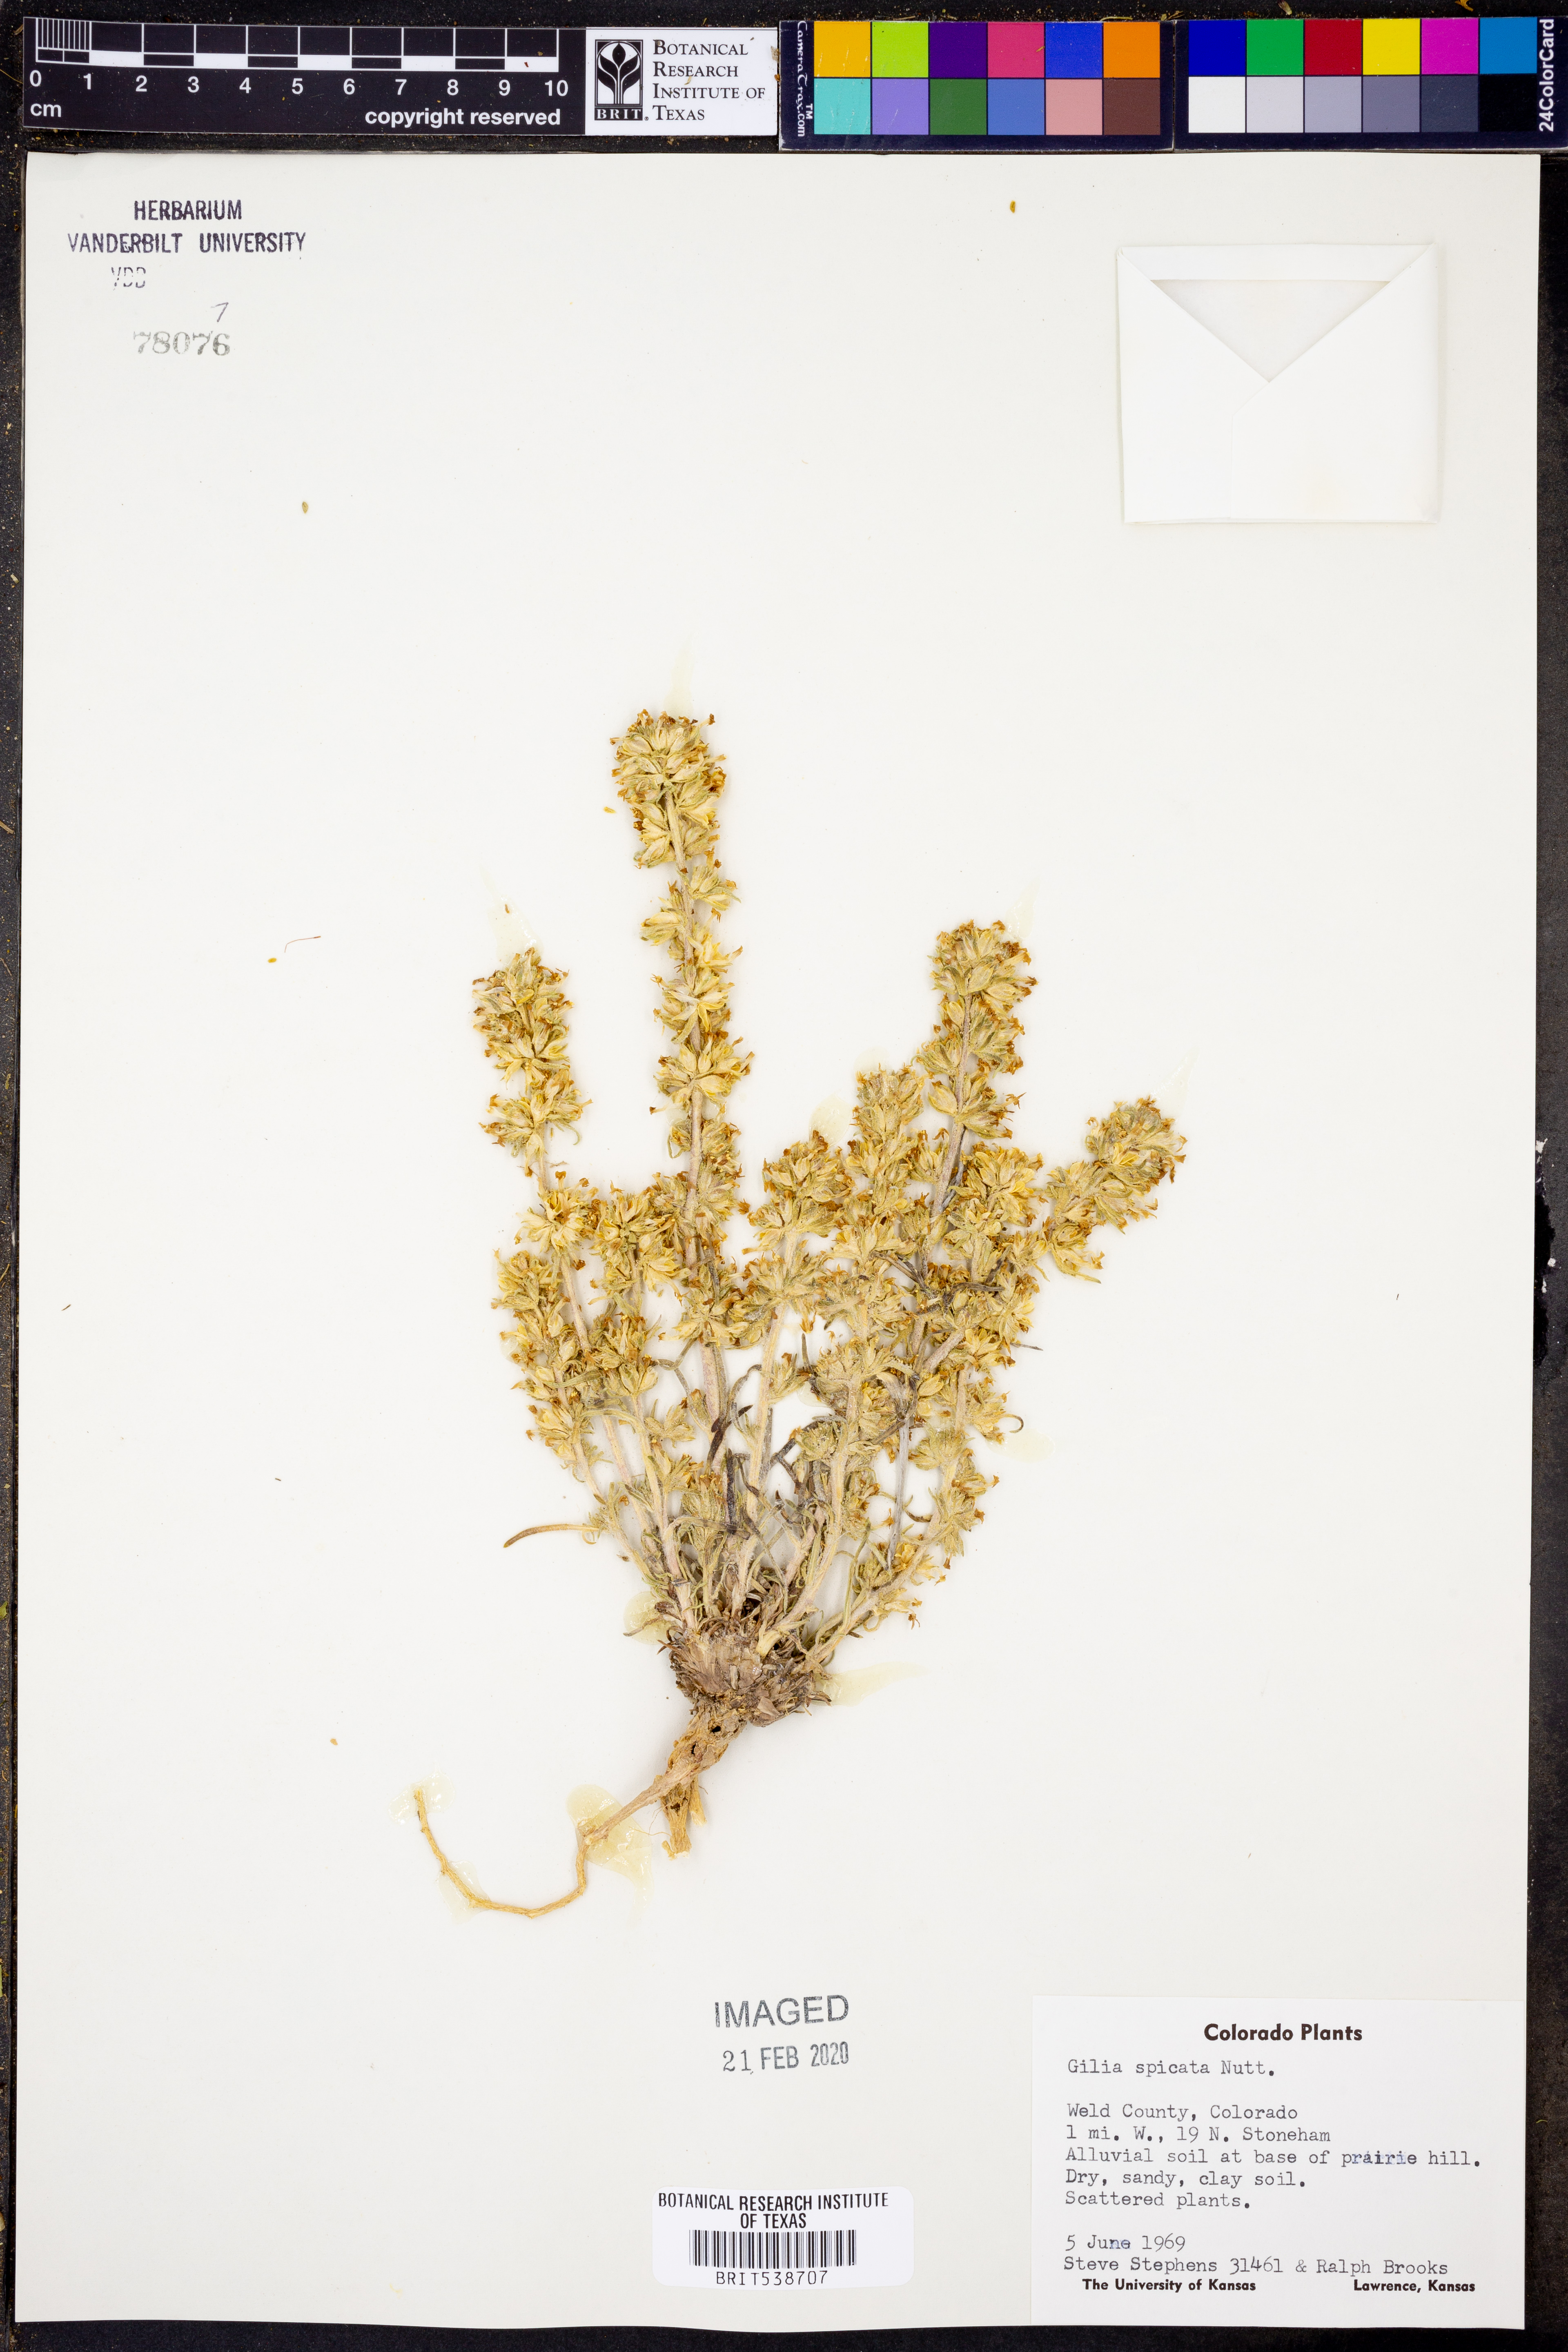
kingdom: Plantae
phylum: Tracheophyta
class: Magnoliopsida
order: Ericales
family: Polemoniaceae
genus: Ipomopsis
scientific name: Ipomopsis spicata
